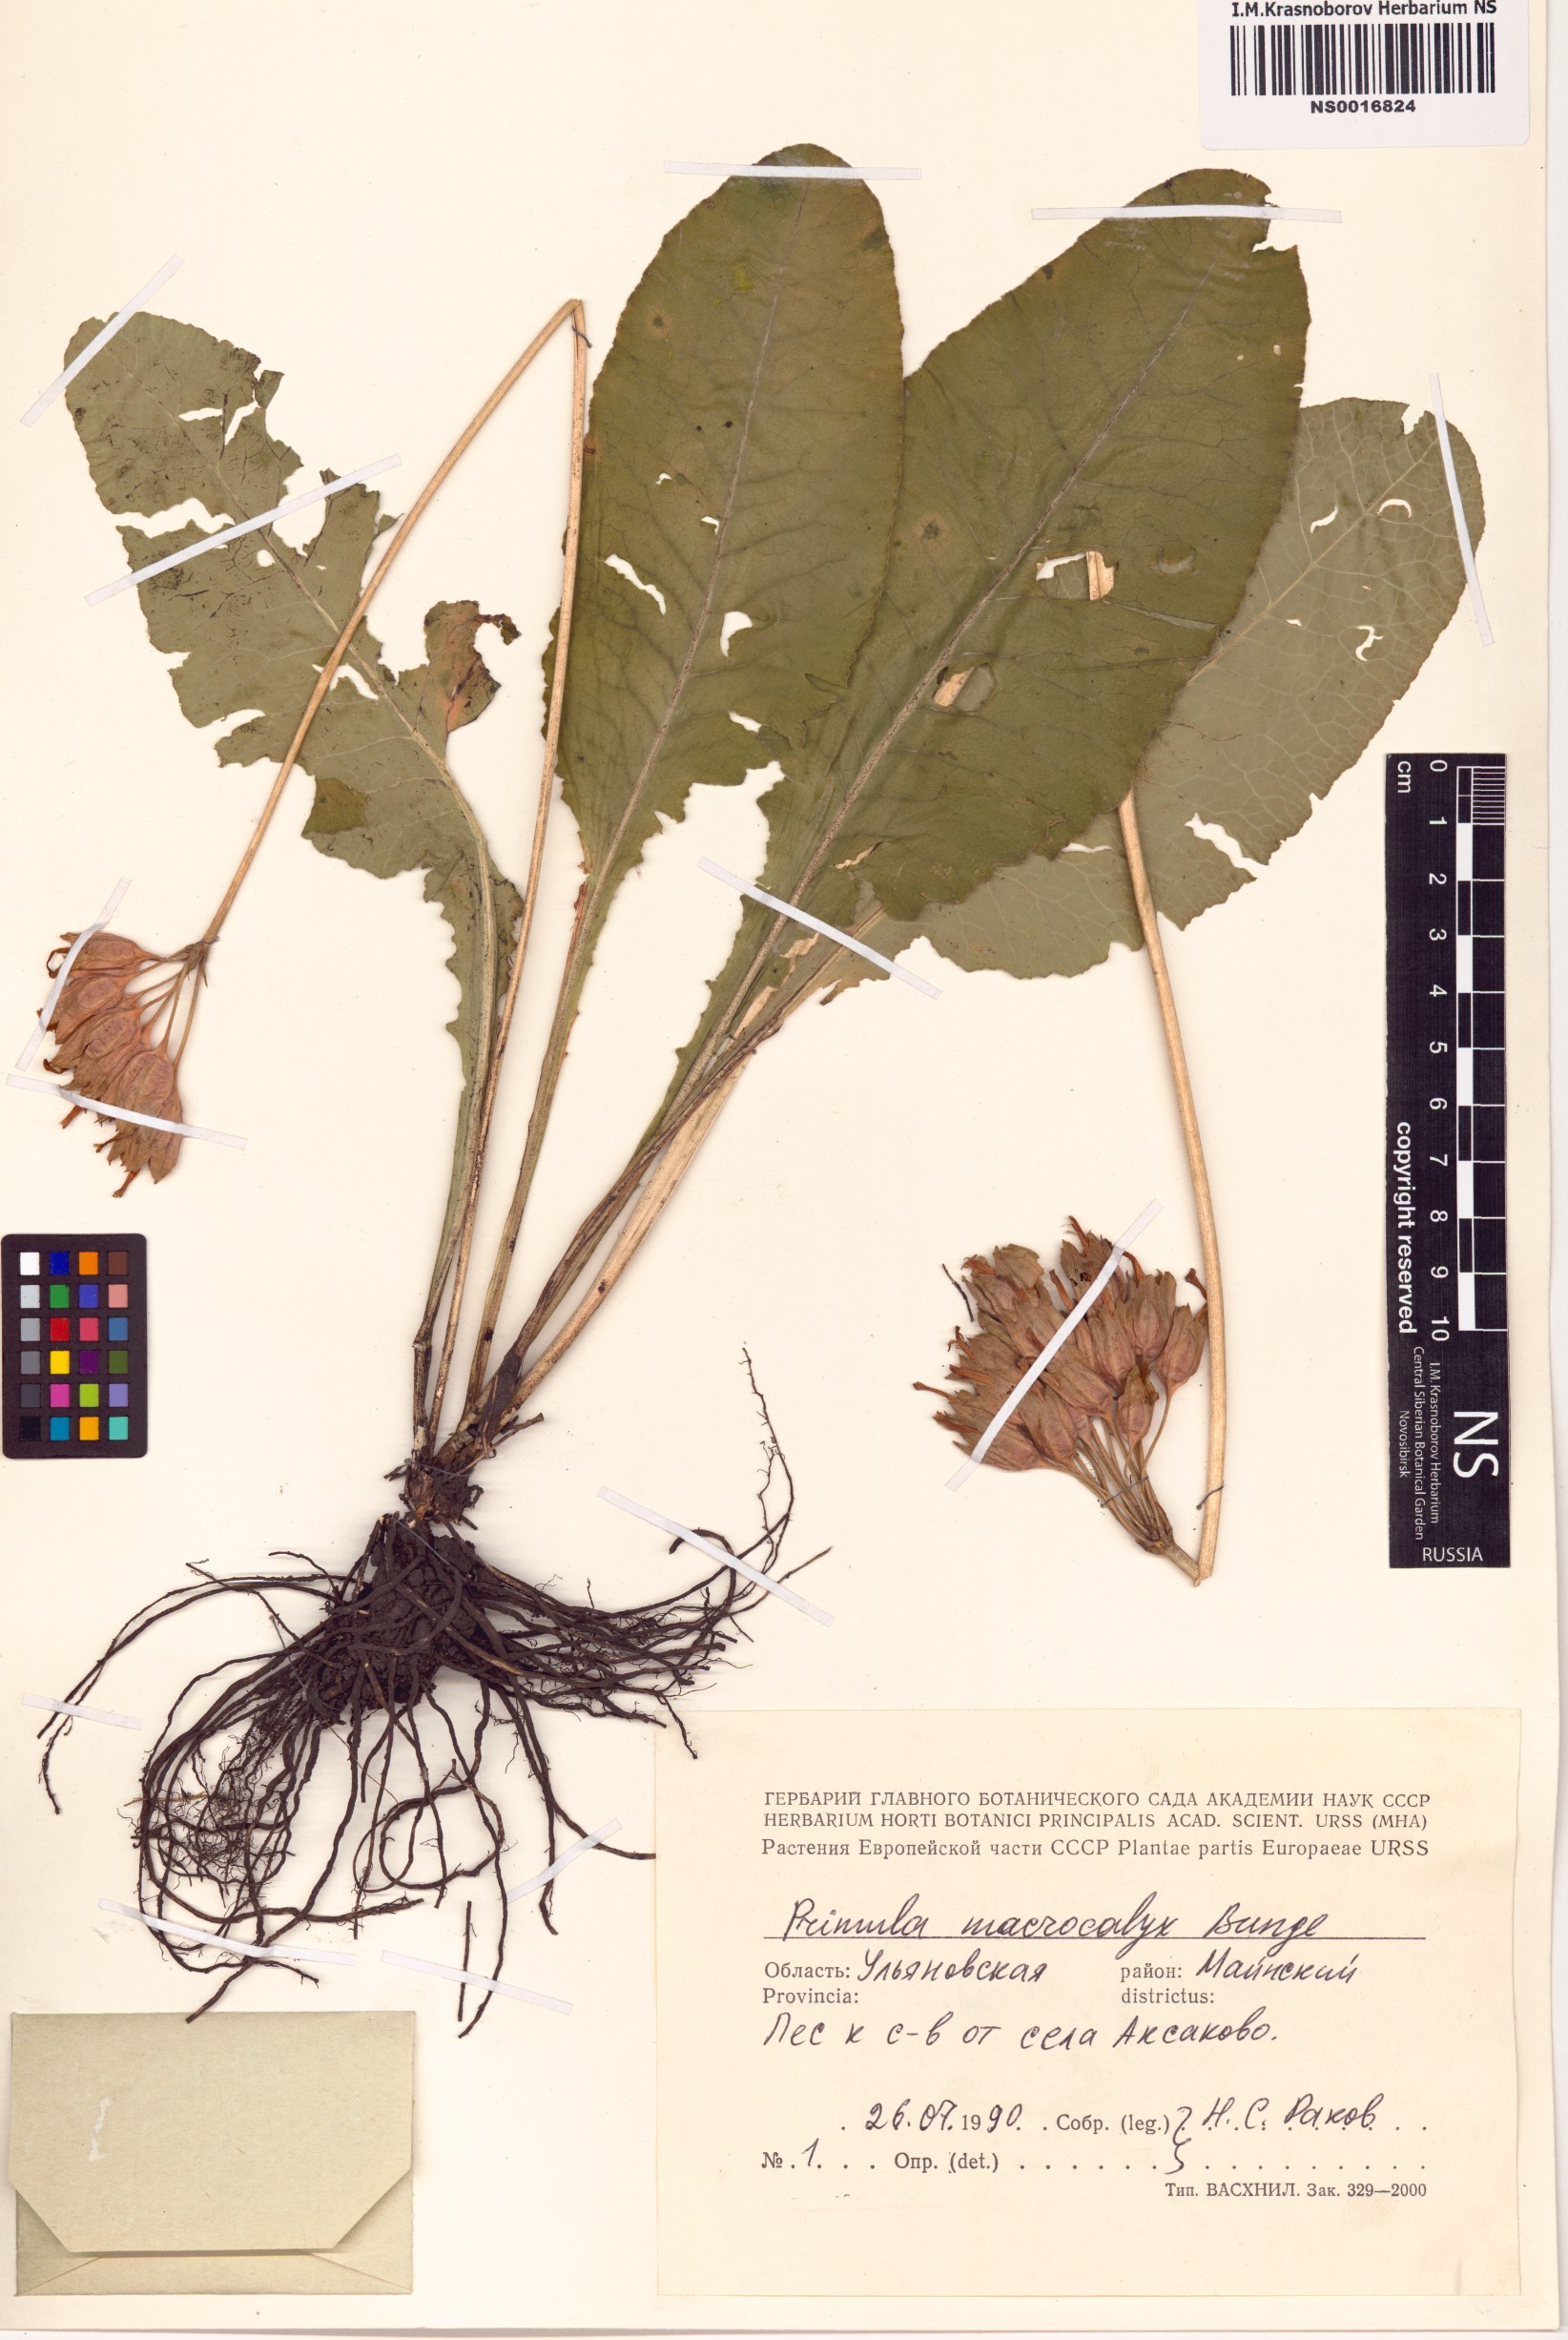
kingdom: Plantae
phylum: Tracheophyta
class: Magnoliopsida
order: Ericales
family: Primulaceae
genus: Primula
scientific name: Primula veris
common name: Cowslip
